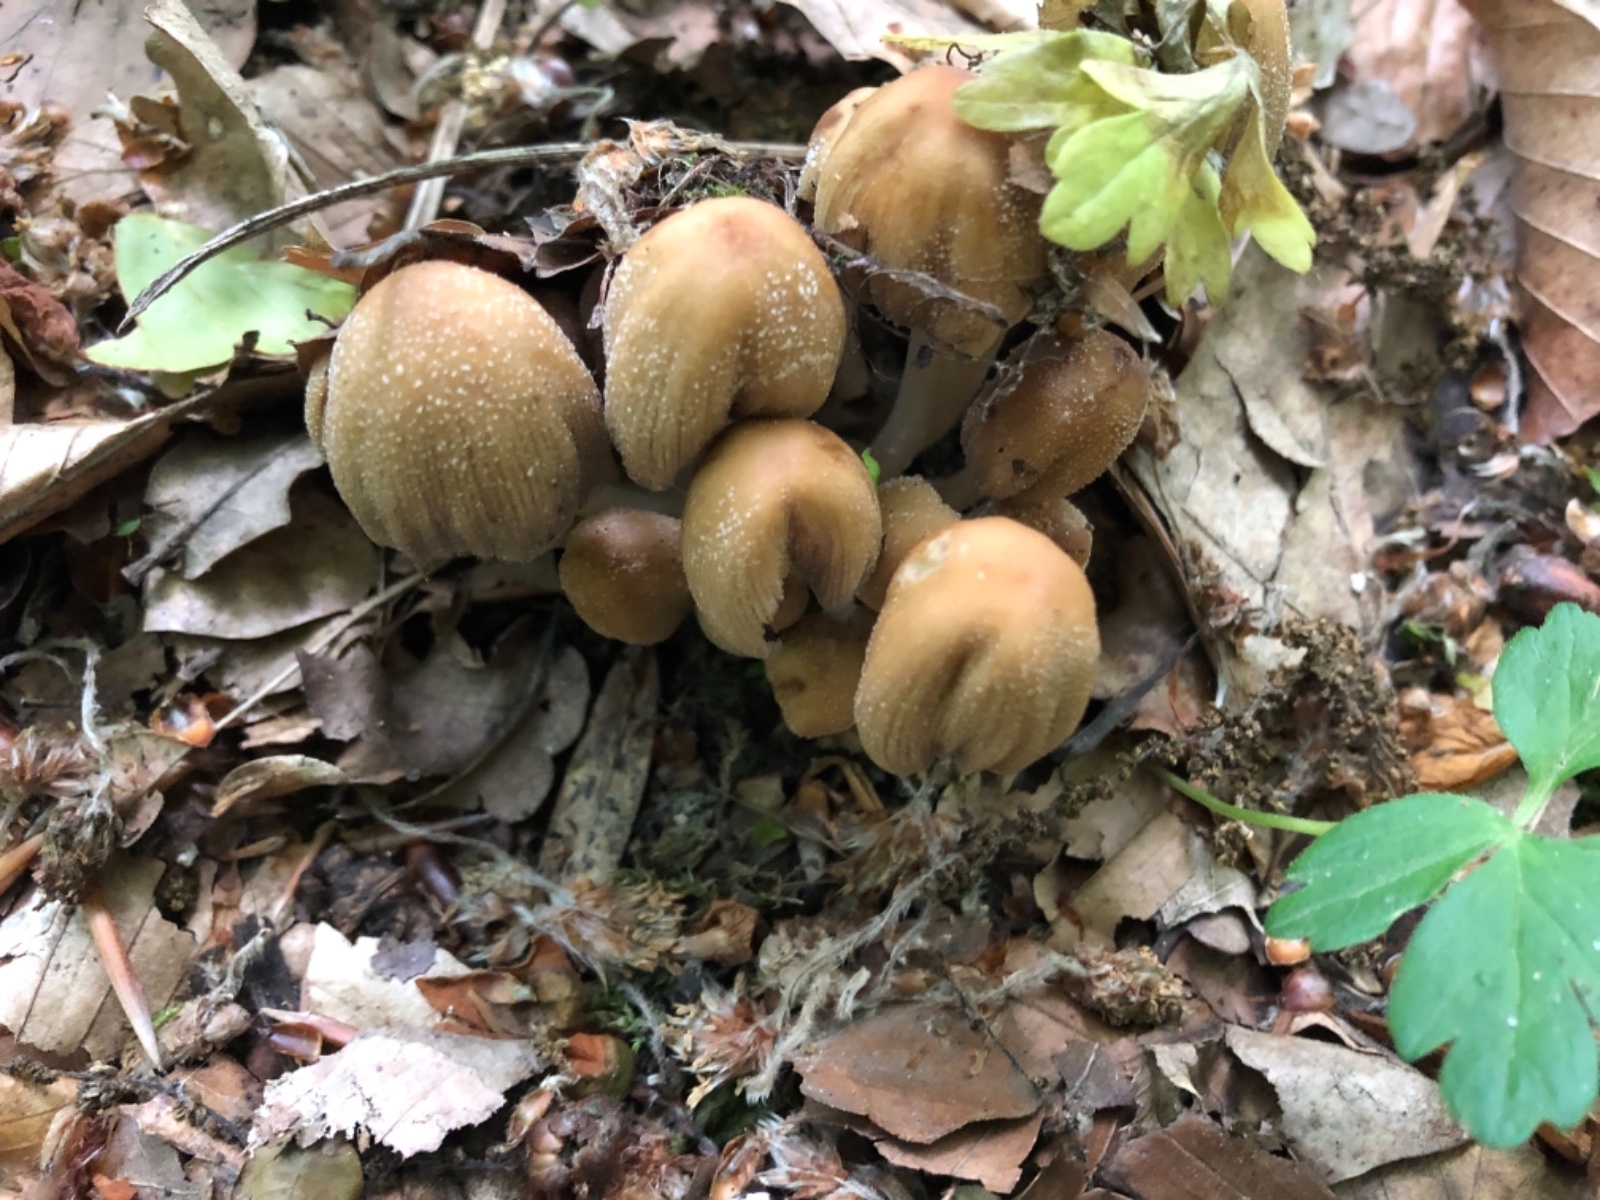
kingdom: Fungi
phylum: Basidiomycota
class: Agaricomycetes
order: Agaricales
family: Psathyrellaceae
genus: Coprinellus
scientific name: Coprinellus micaceus
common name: glimmer-blækhat
